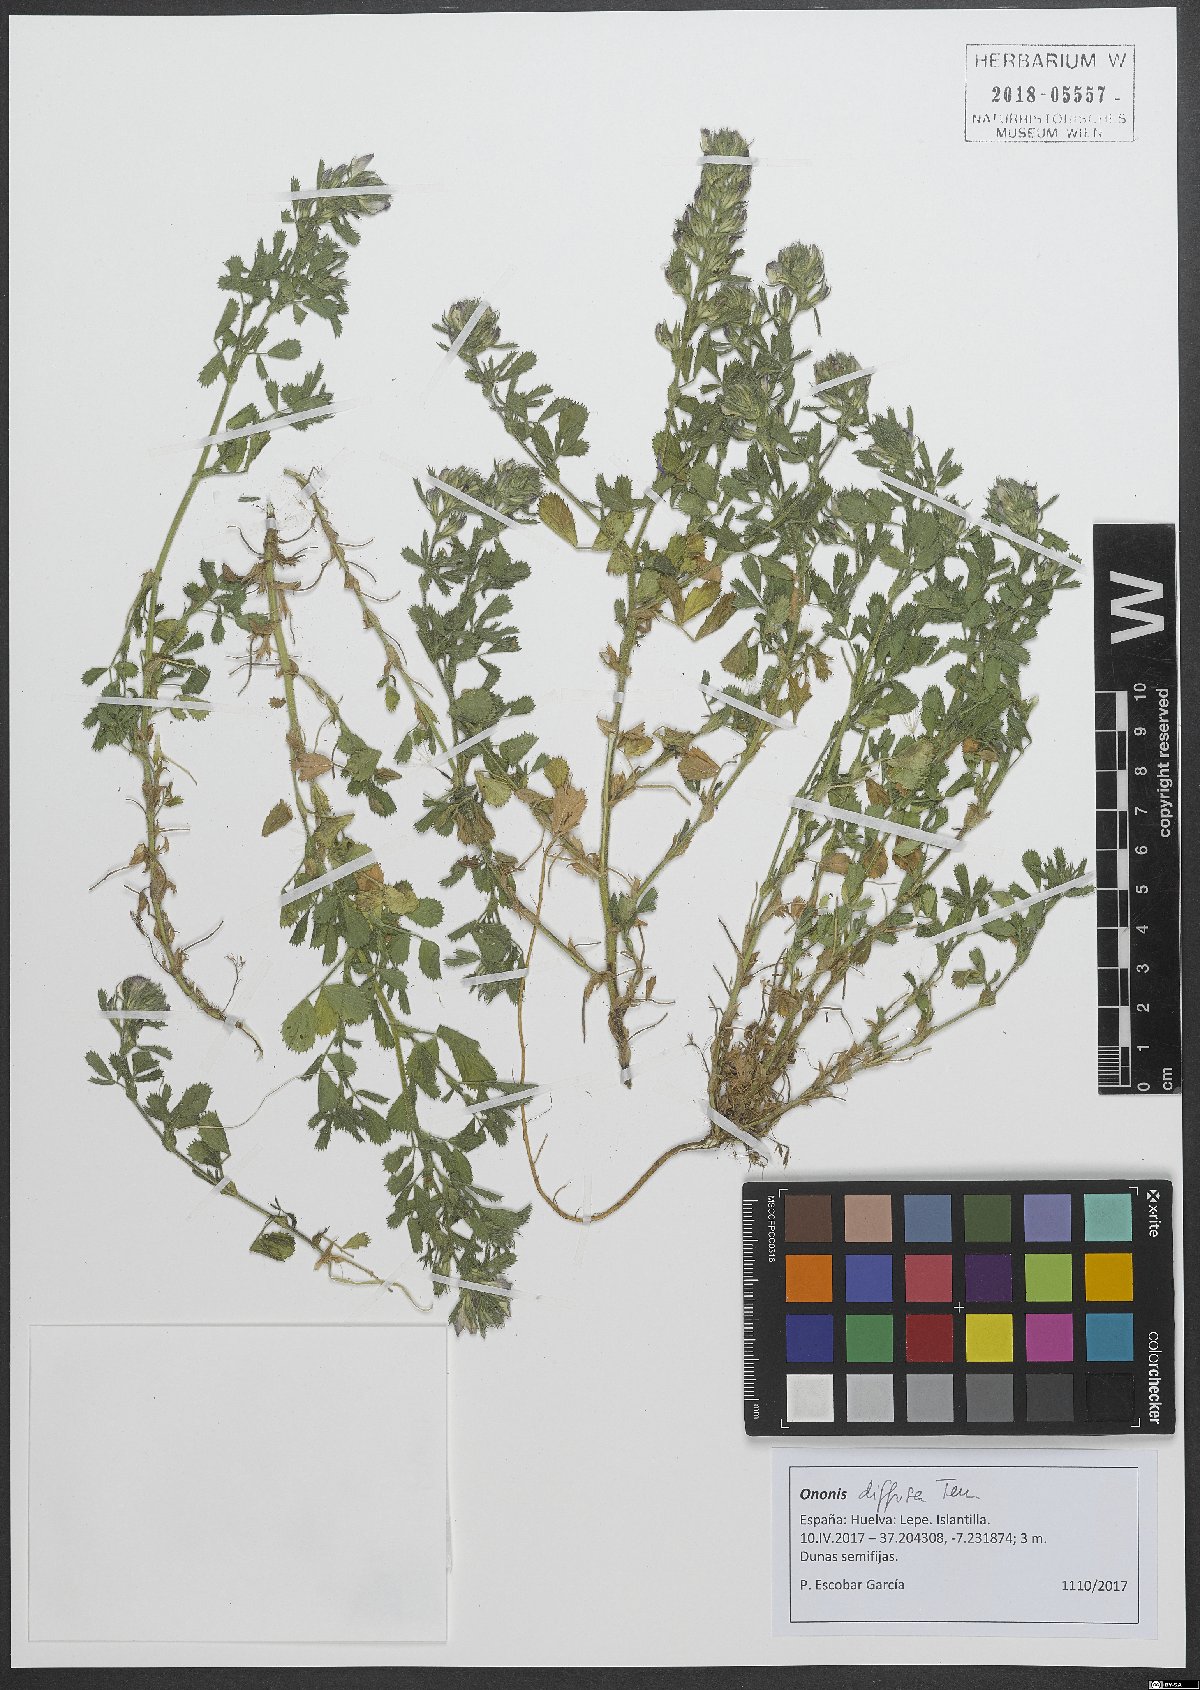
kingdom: Plantae
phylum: Tracheophyta
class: Magnoliopsida
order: Fabales
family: Fabaceae
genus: Ononis
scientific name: Ononis diffusa
